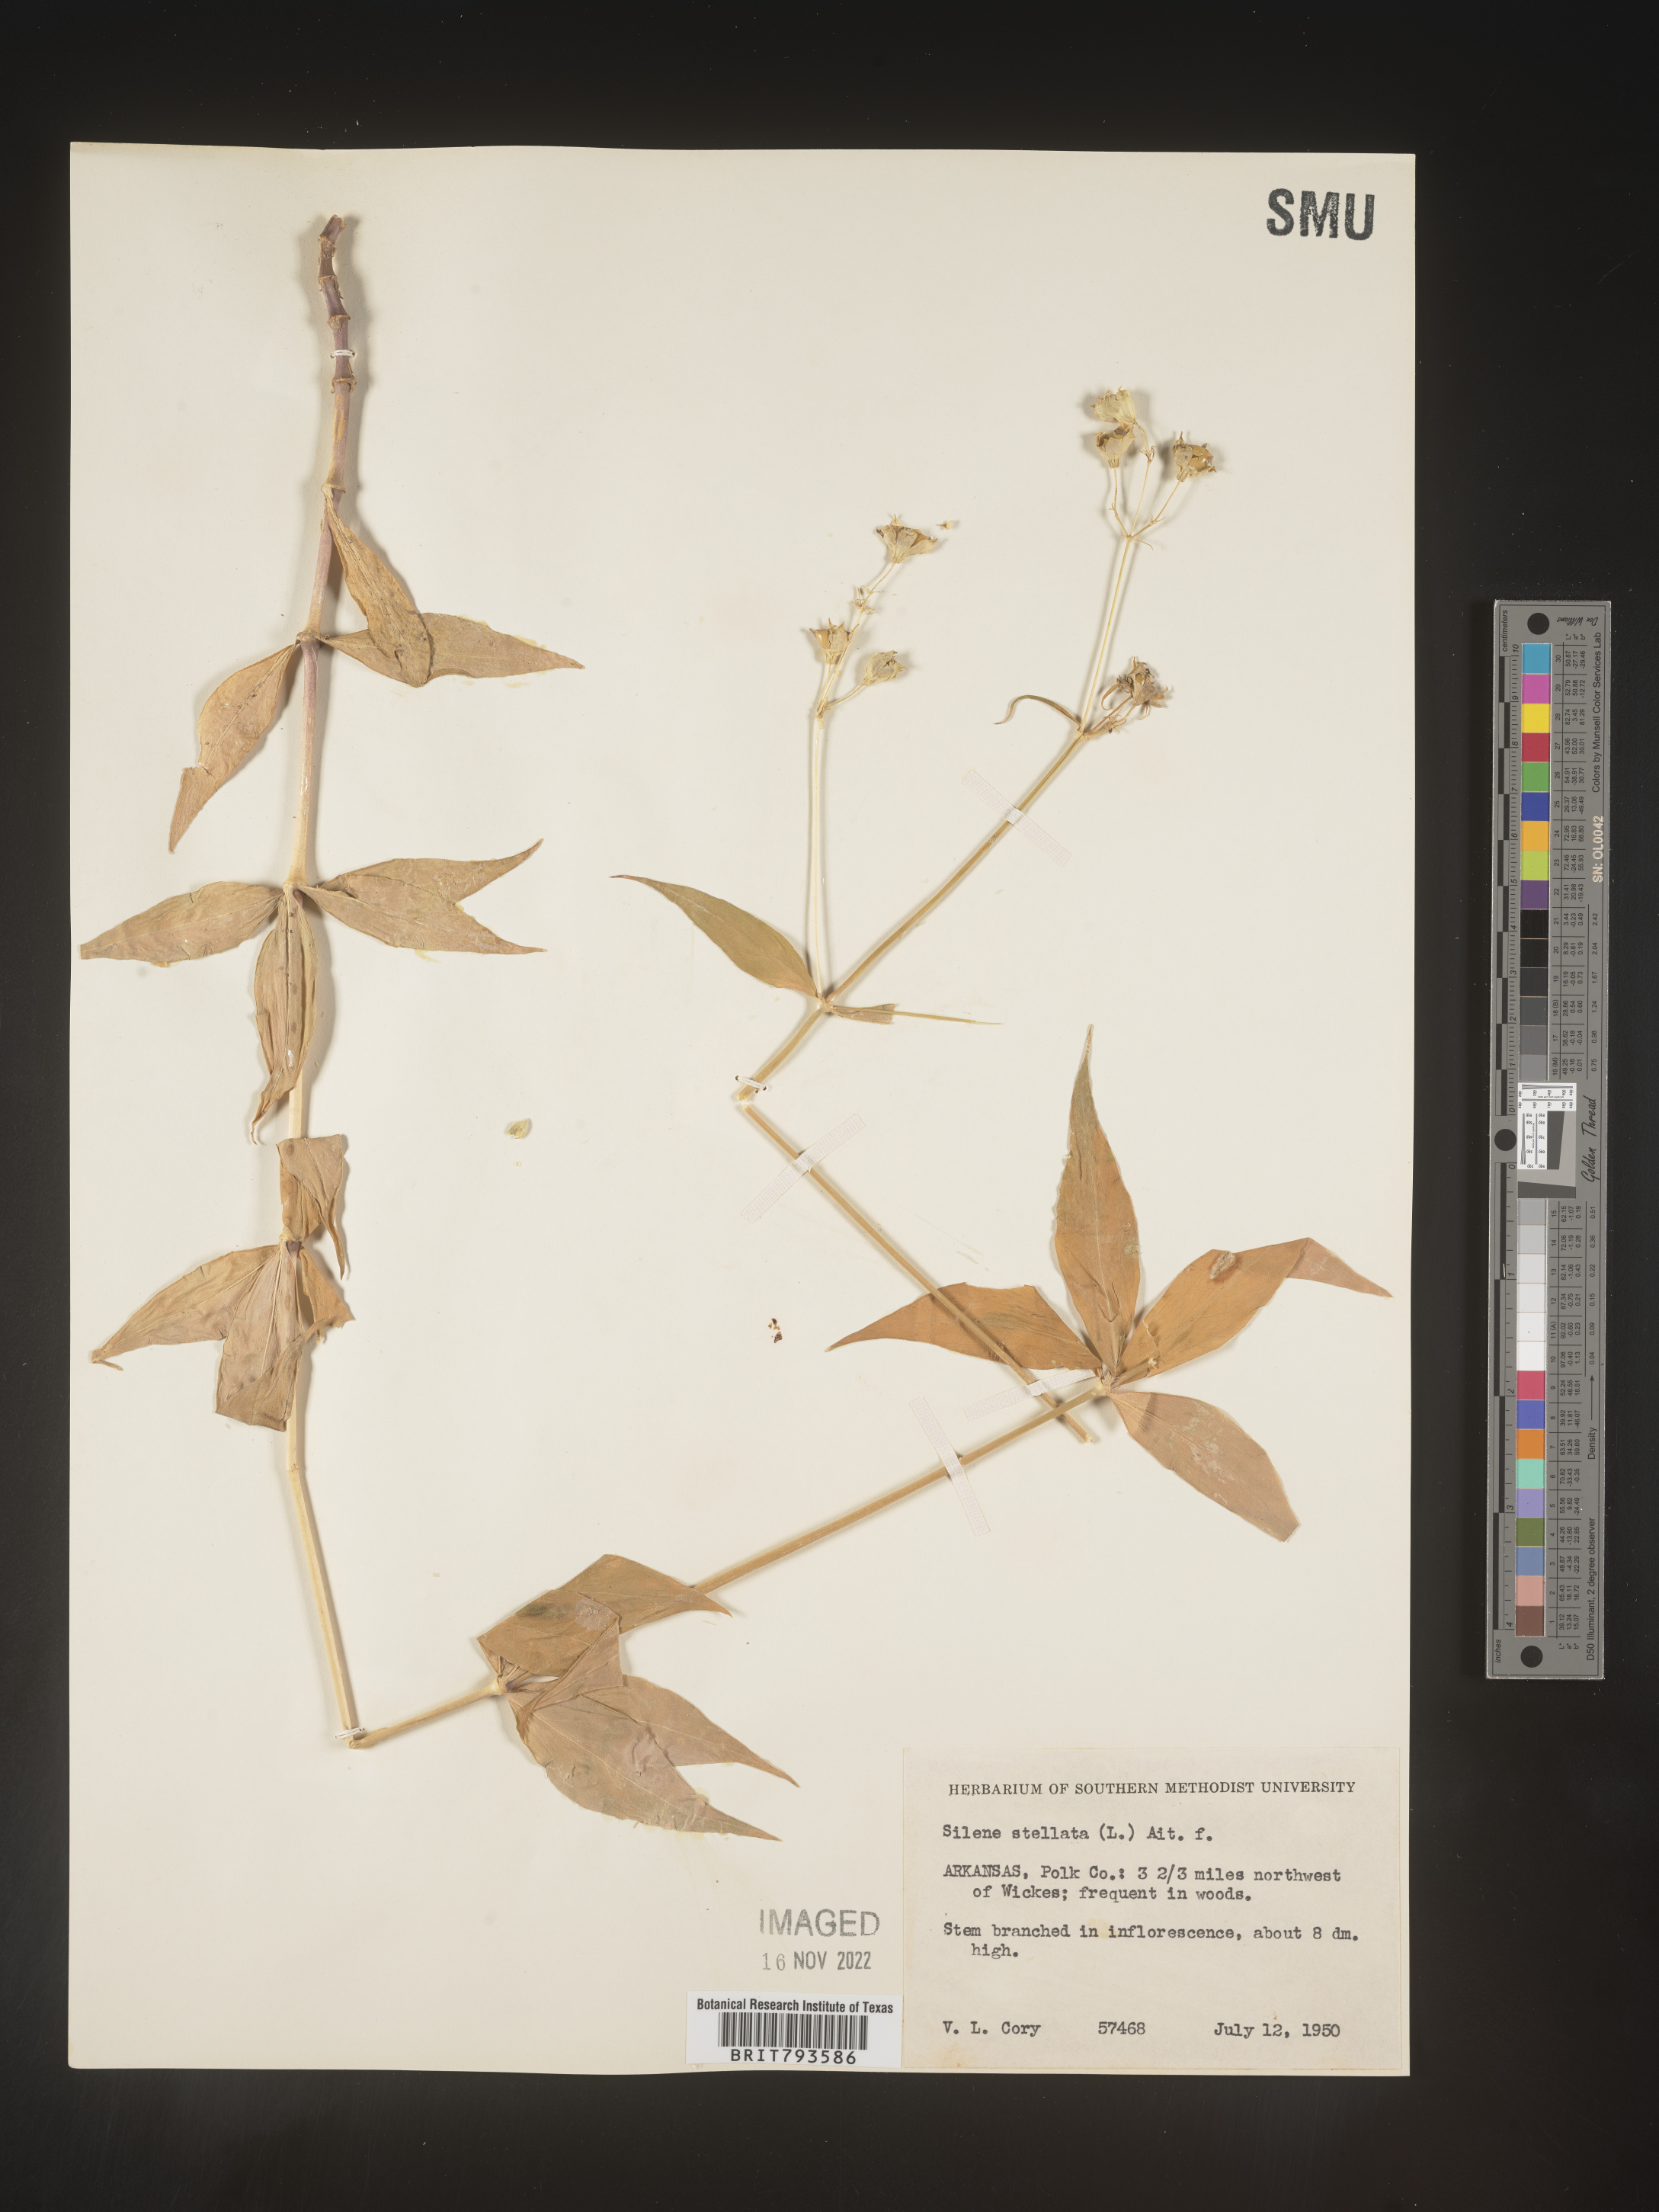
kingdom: Plantae
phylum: Tracheophyta
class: Magnoliopsida
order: Caryophyllales
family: Caryophyllaceae
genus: Silene
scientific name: Silene stellata
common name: Starry campion
